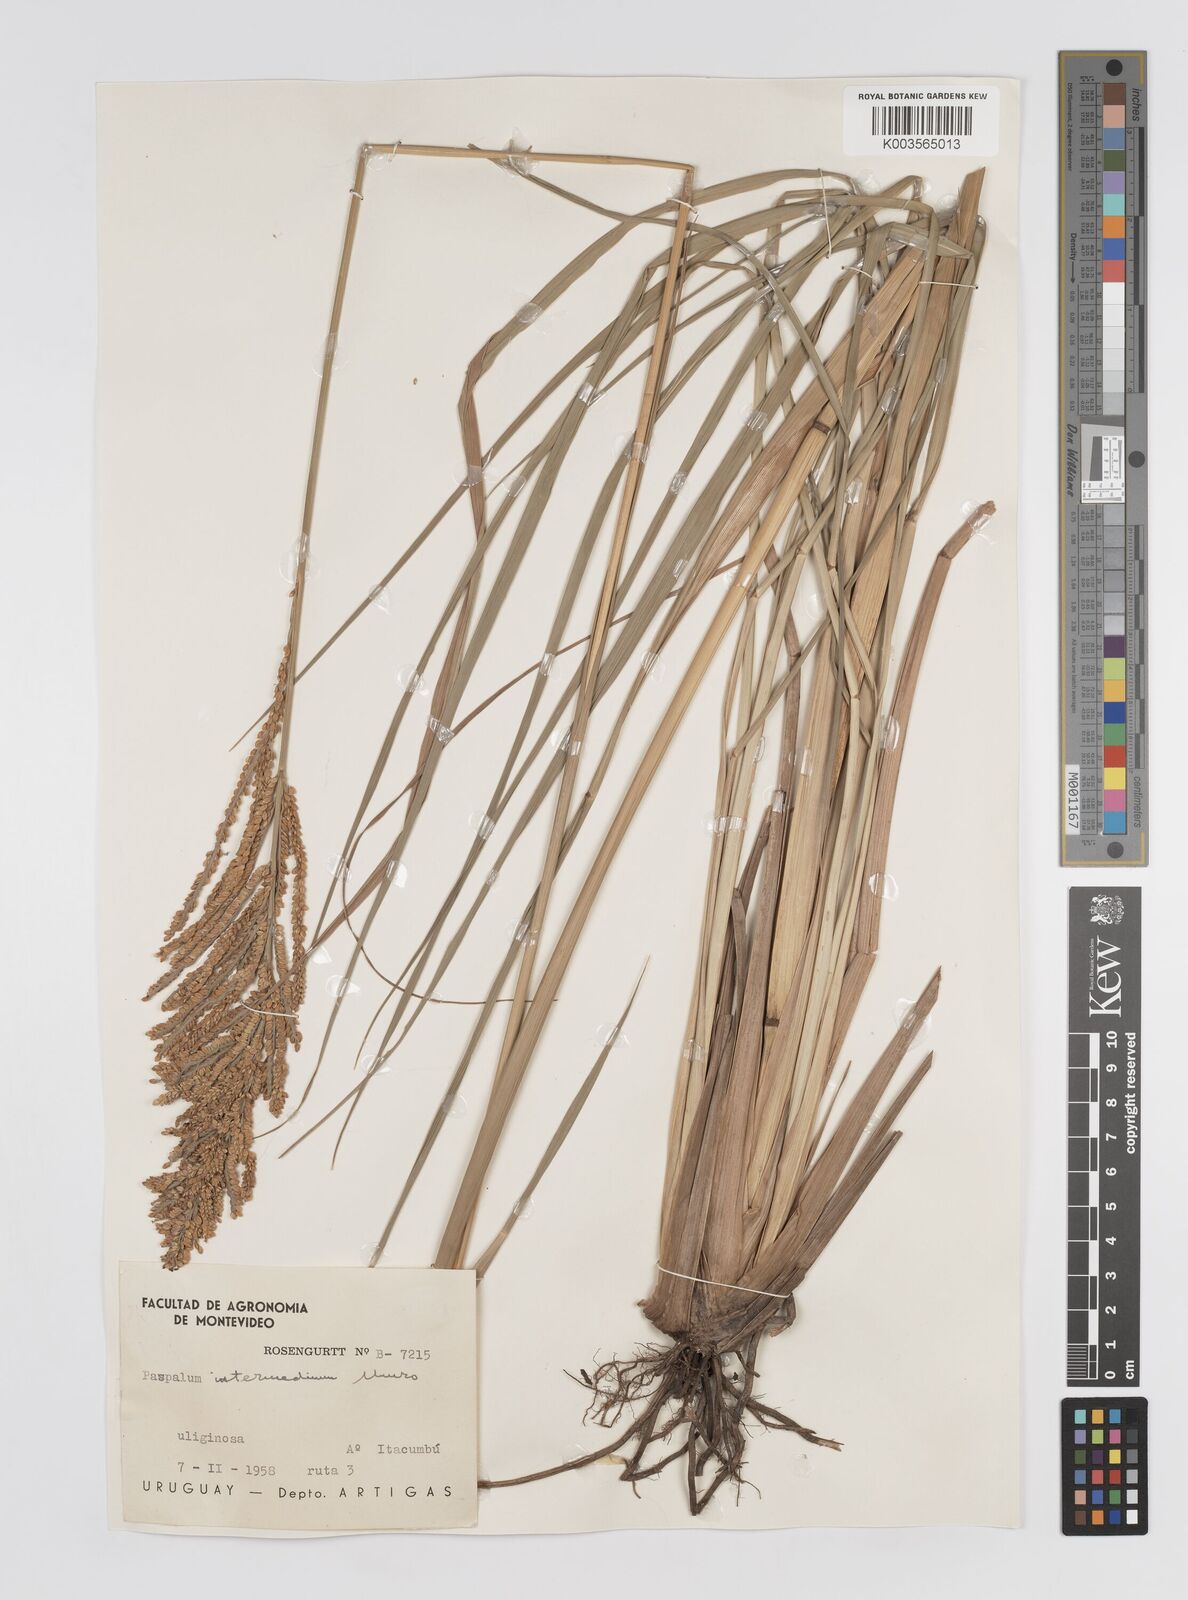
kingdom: Plantae
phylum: Tracheophyta
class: Liliopsida
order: Poales
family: Poaceae
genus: Paspalum
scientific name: Paspalum intermedium
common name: Intermediate paspalum
